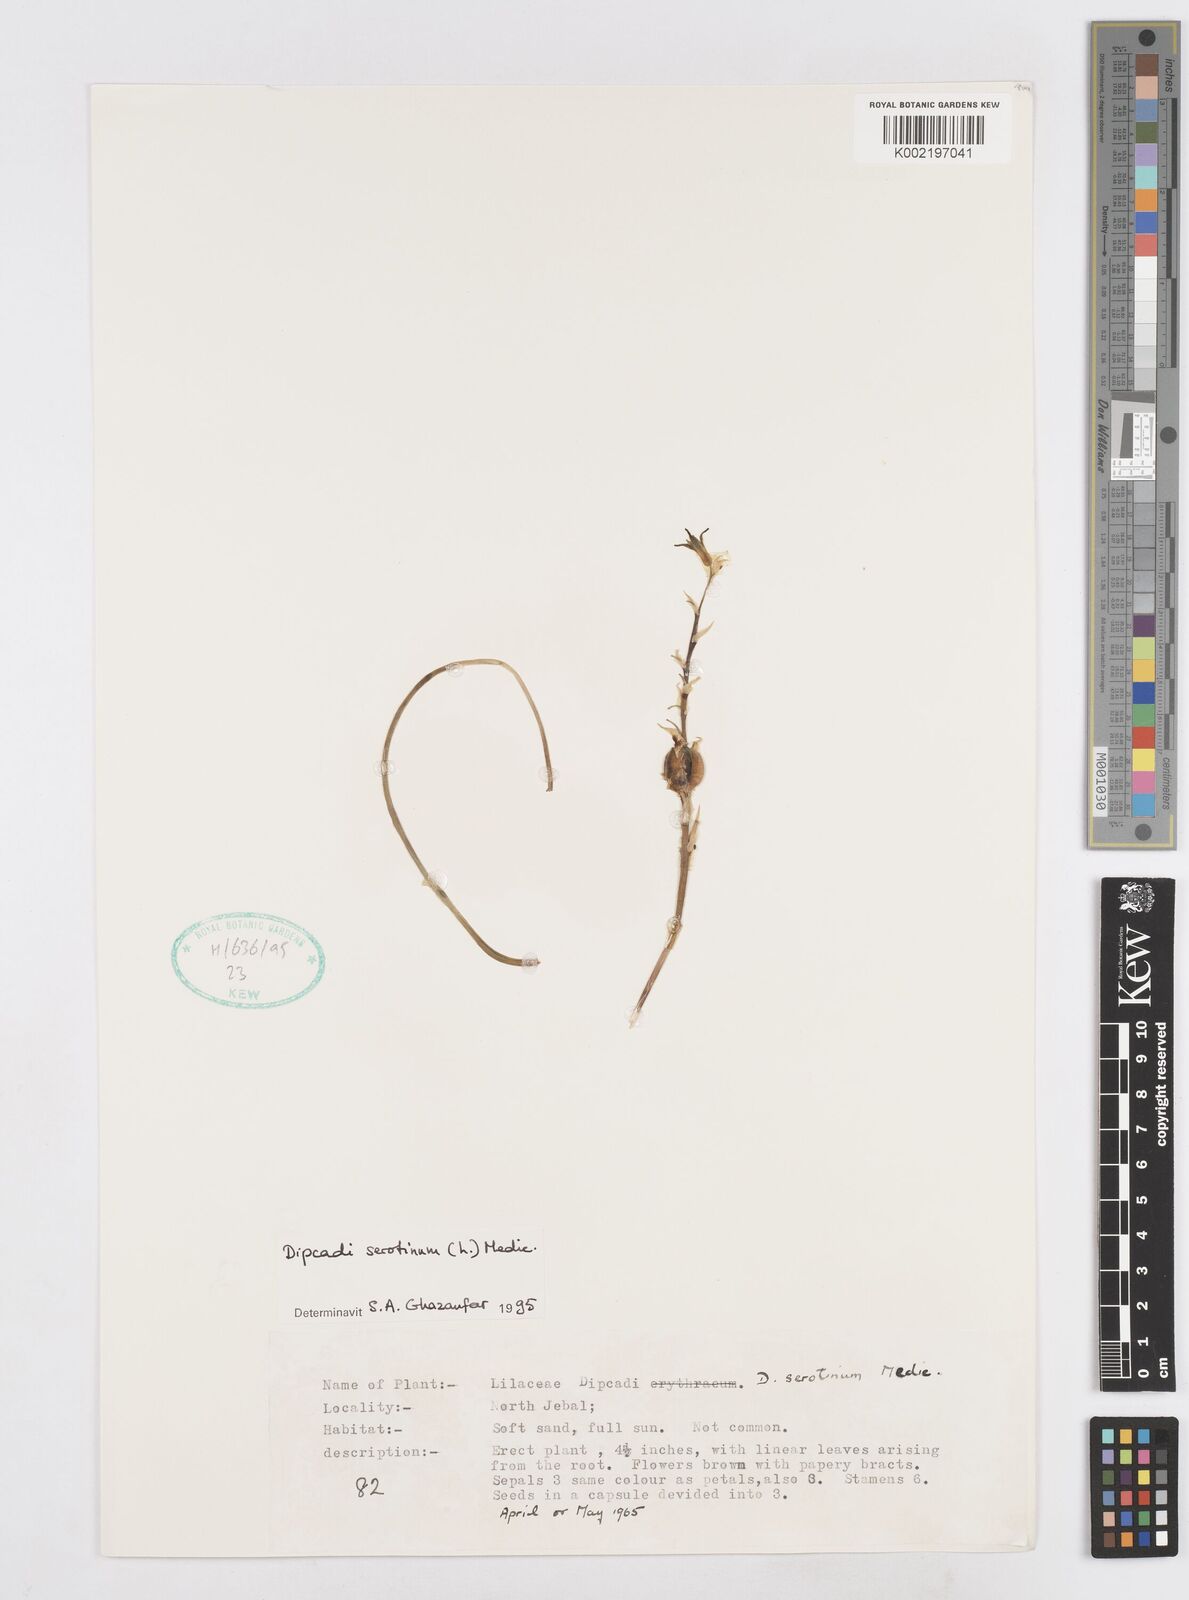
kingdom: Plantae
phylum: Tracheophyta
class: Liliopsida
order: Asparagales
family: Asparagaceae
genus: Dipcadi
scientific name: Dipcadi serotinum
